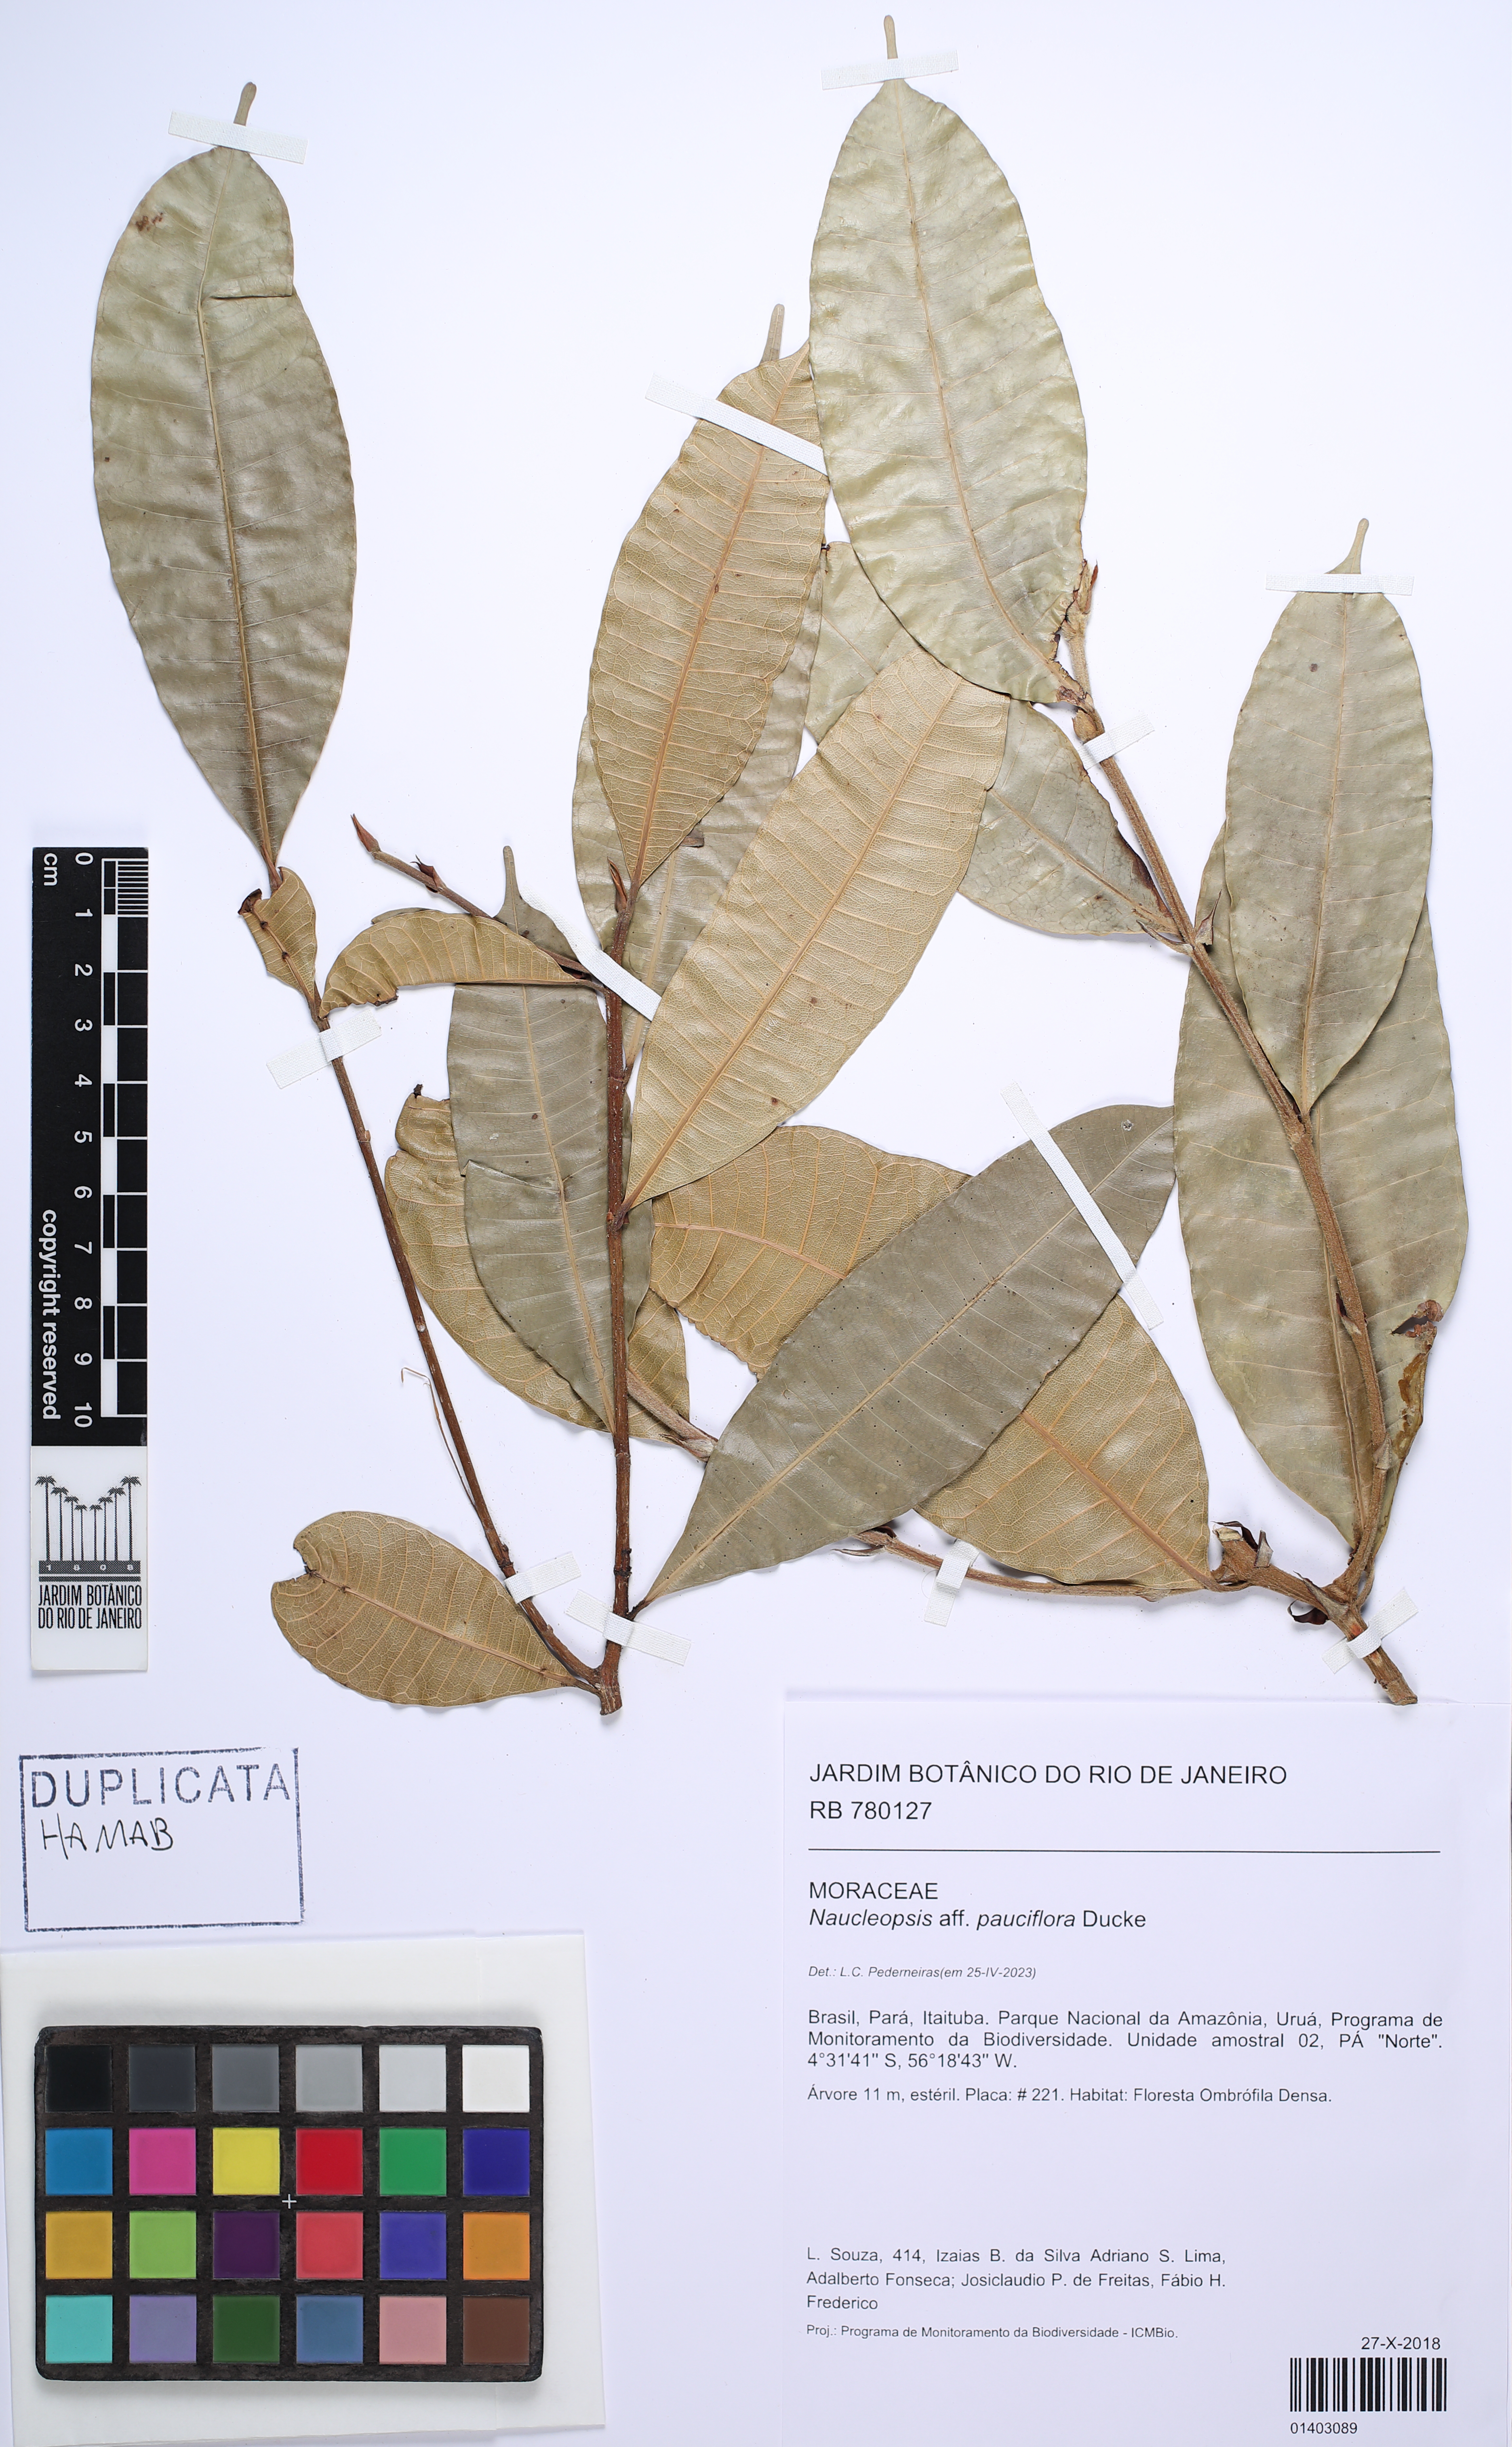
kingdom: Plantae
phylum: Tracheophyta
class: Magnoliopsida
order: Rosales
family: Moraceae
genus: Naucleopsis
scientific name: Naucleopsis ternstroemiiflora
